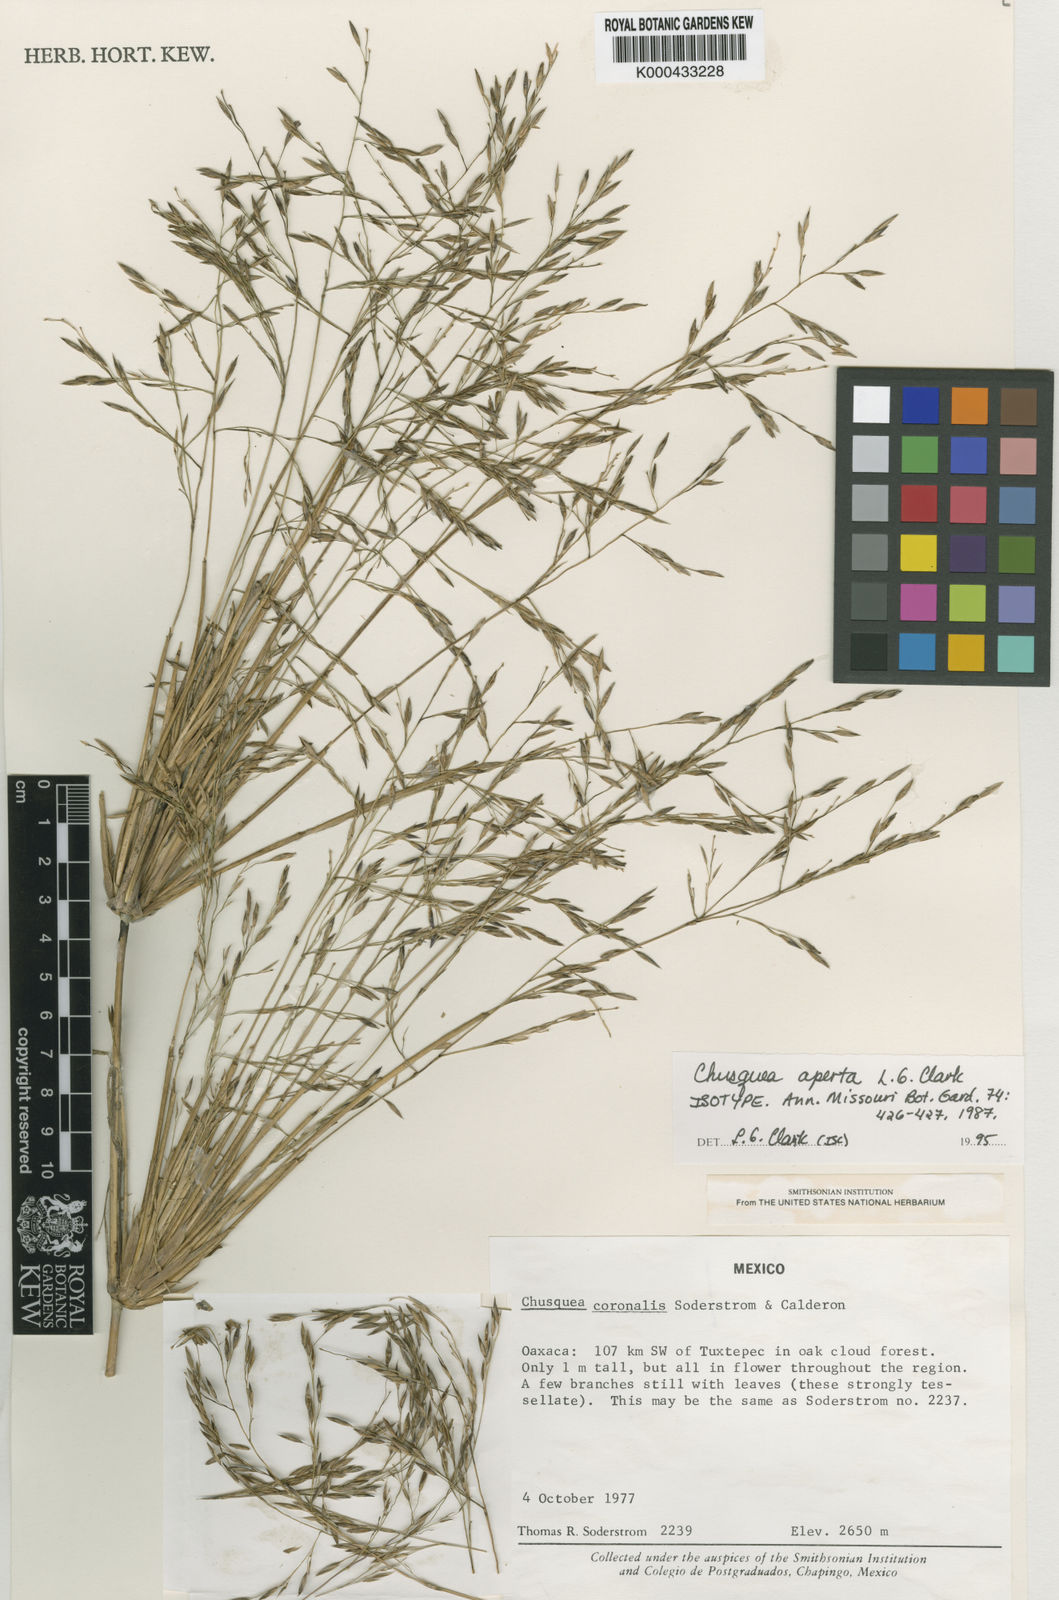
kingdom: Plantae
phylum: Tracheophyta
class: Liliopsida
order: Poales
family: Poaceae
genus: Chusquea
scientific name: Chusquea aperta
